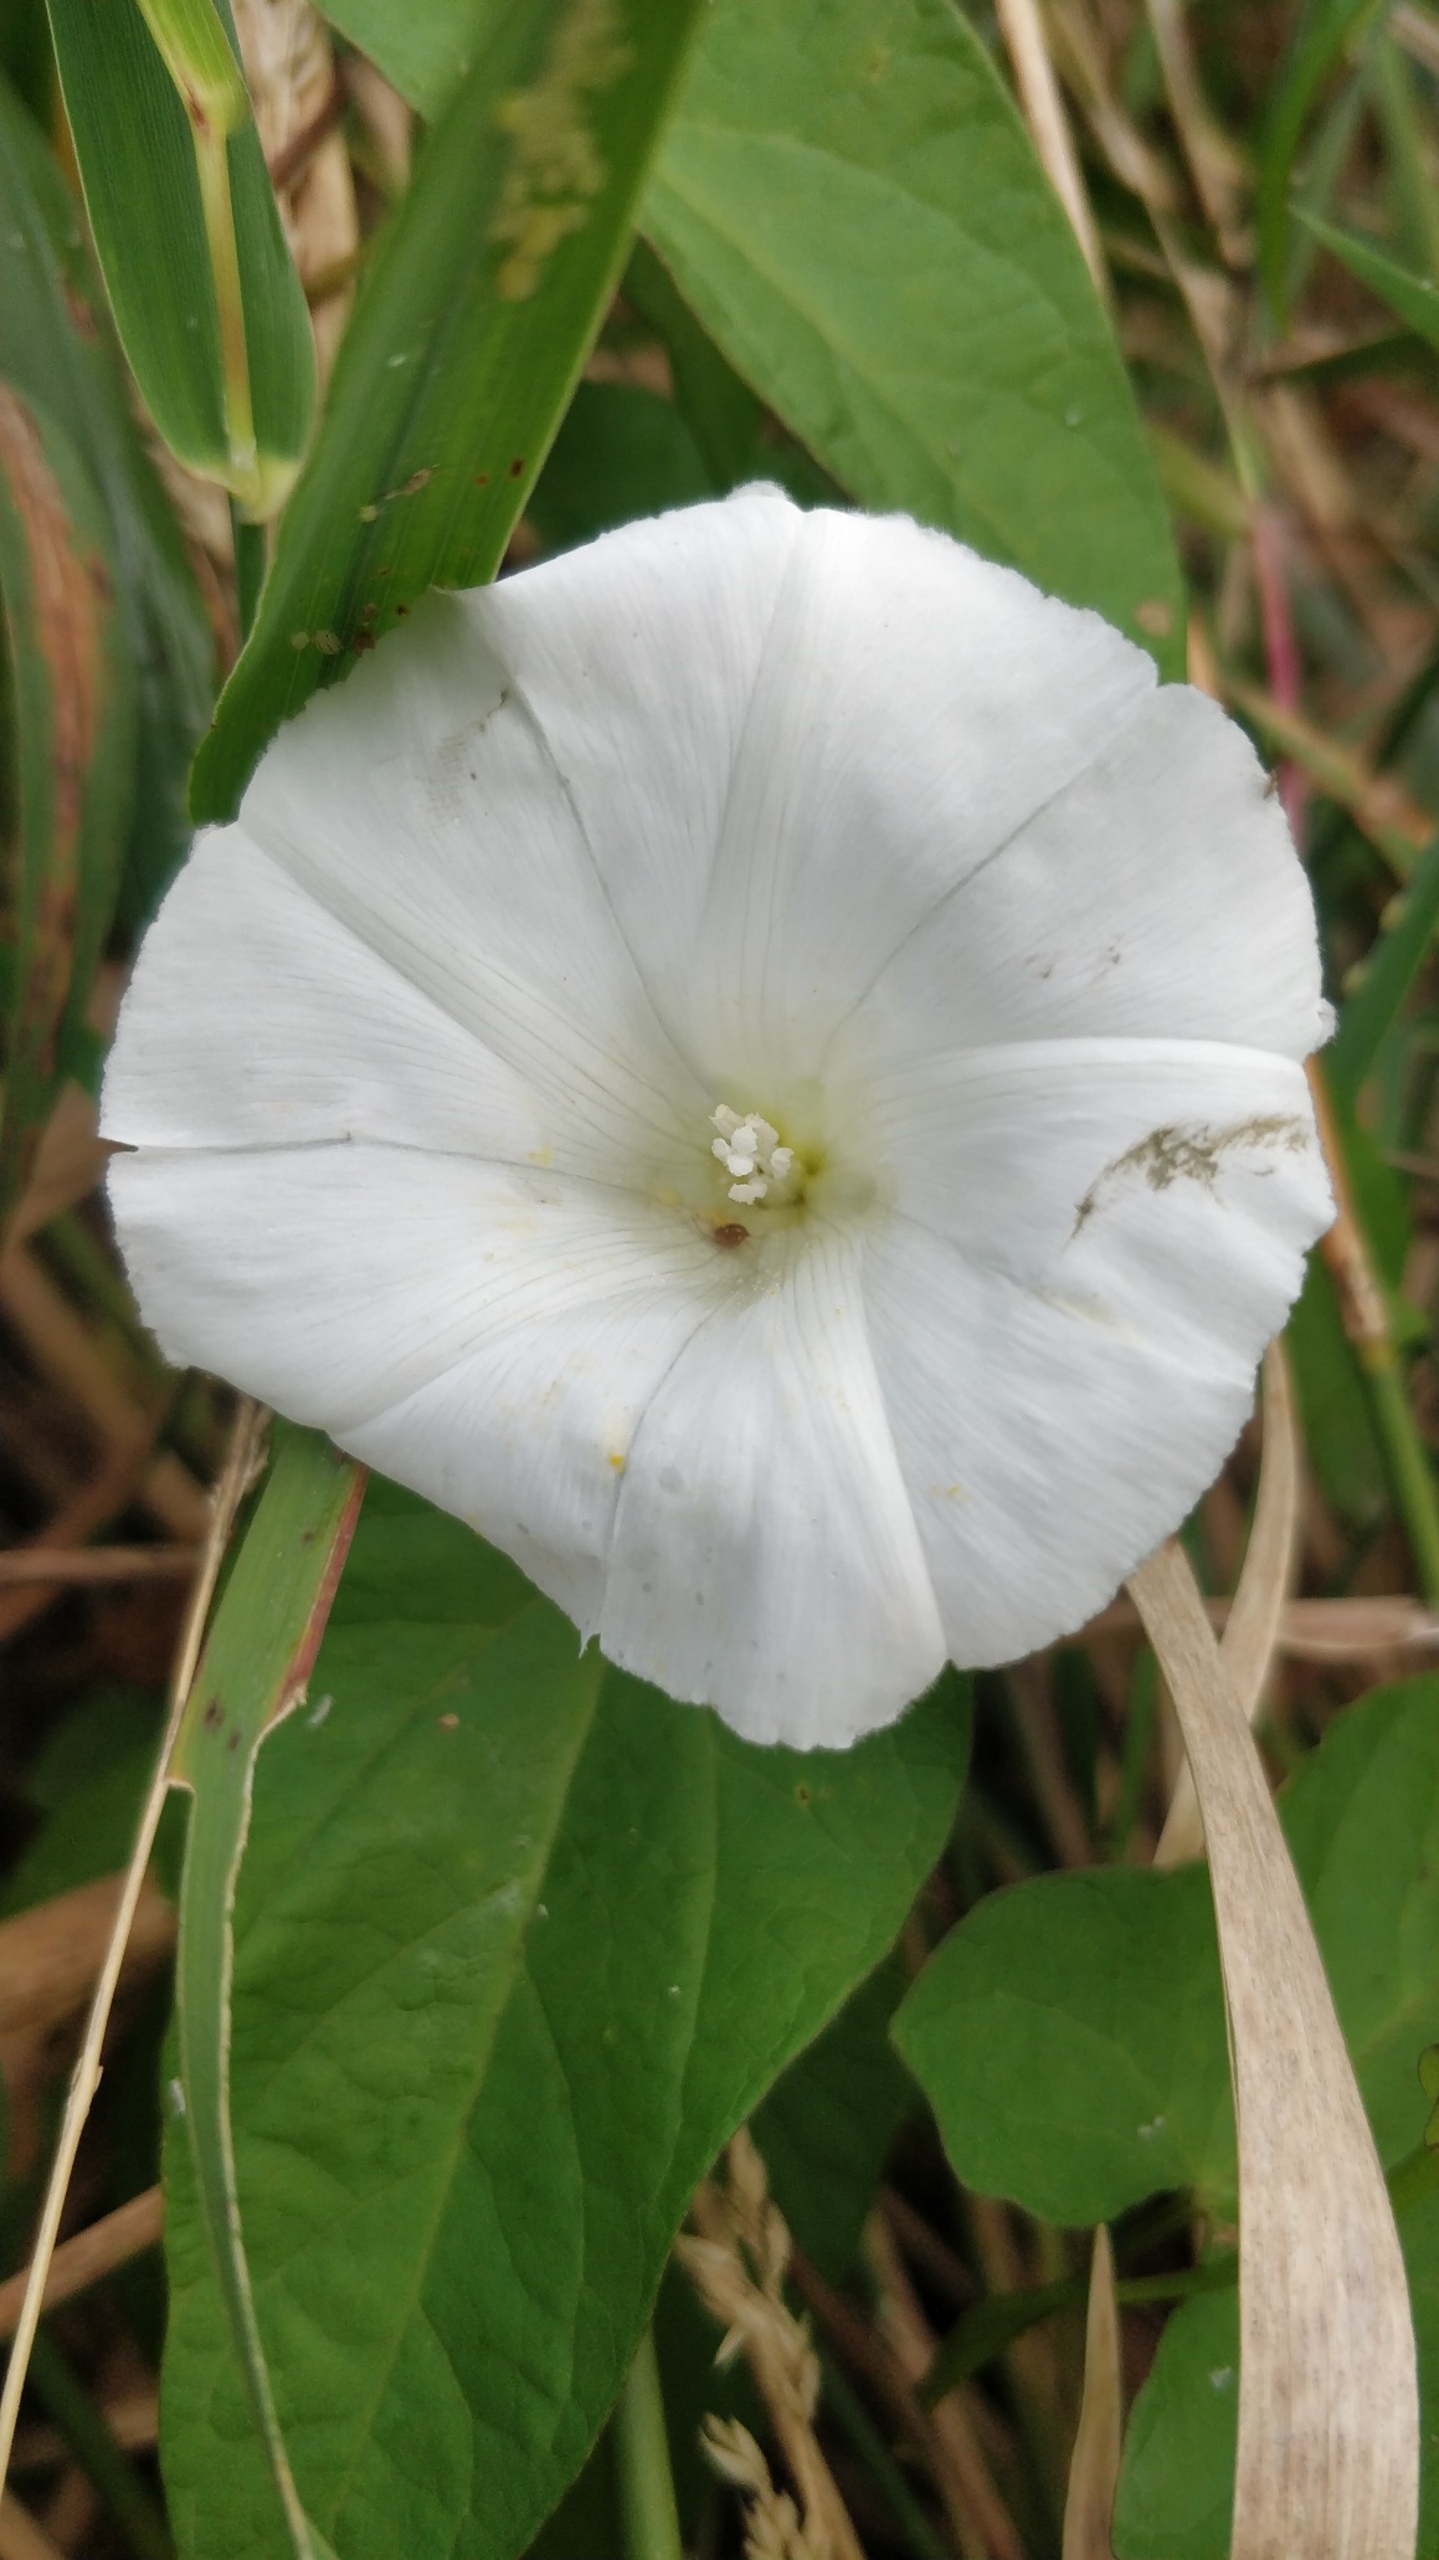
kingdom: Plantae
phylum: Tracheophyta
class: Magnoliopsida
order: Solanales
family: Convolvulaceae
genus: Calystegia
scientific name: Calystegia sepium
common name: Gærde-snerle
